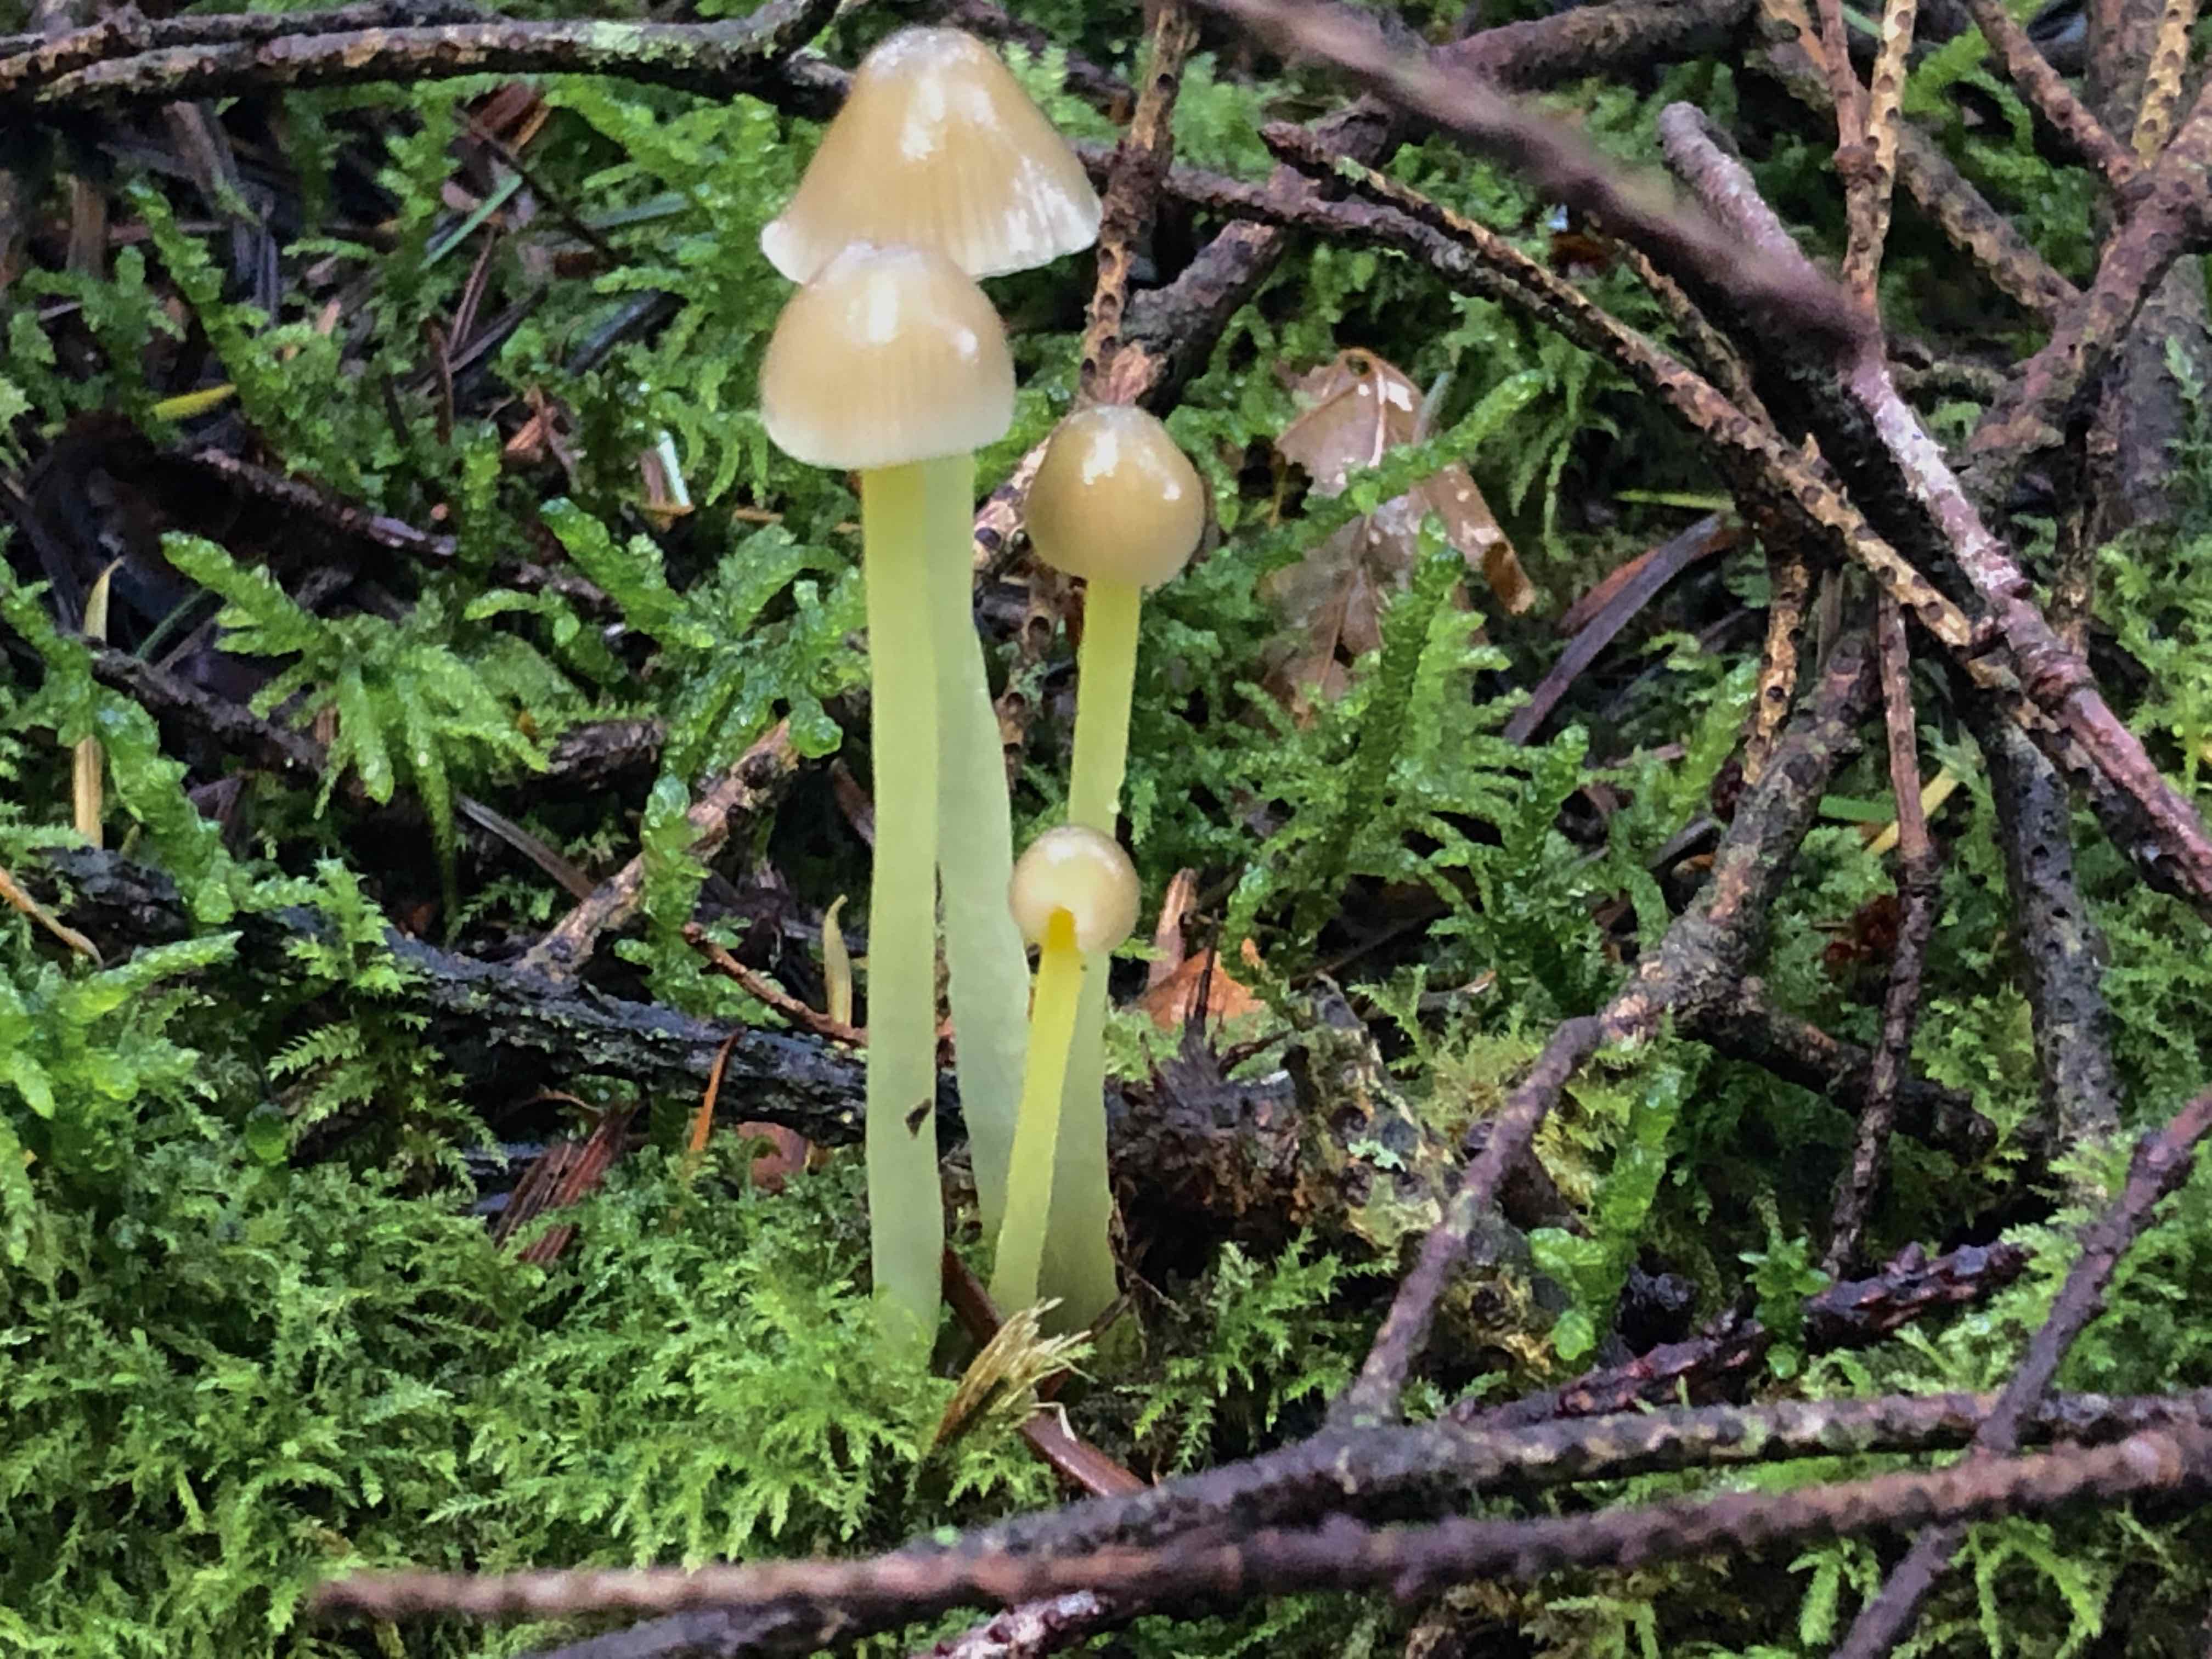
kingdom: Fungi
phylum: Basidiomycota
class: Agaricomycetes
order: Agaricales
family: Mycenaceae
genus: Mycena
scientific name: Mycena epipterygia
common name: gulstokket huesvamp
